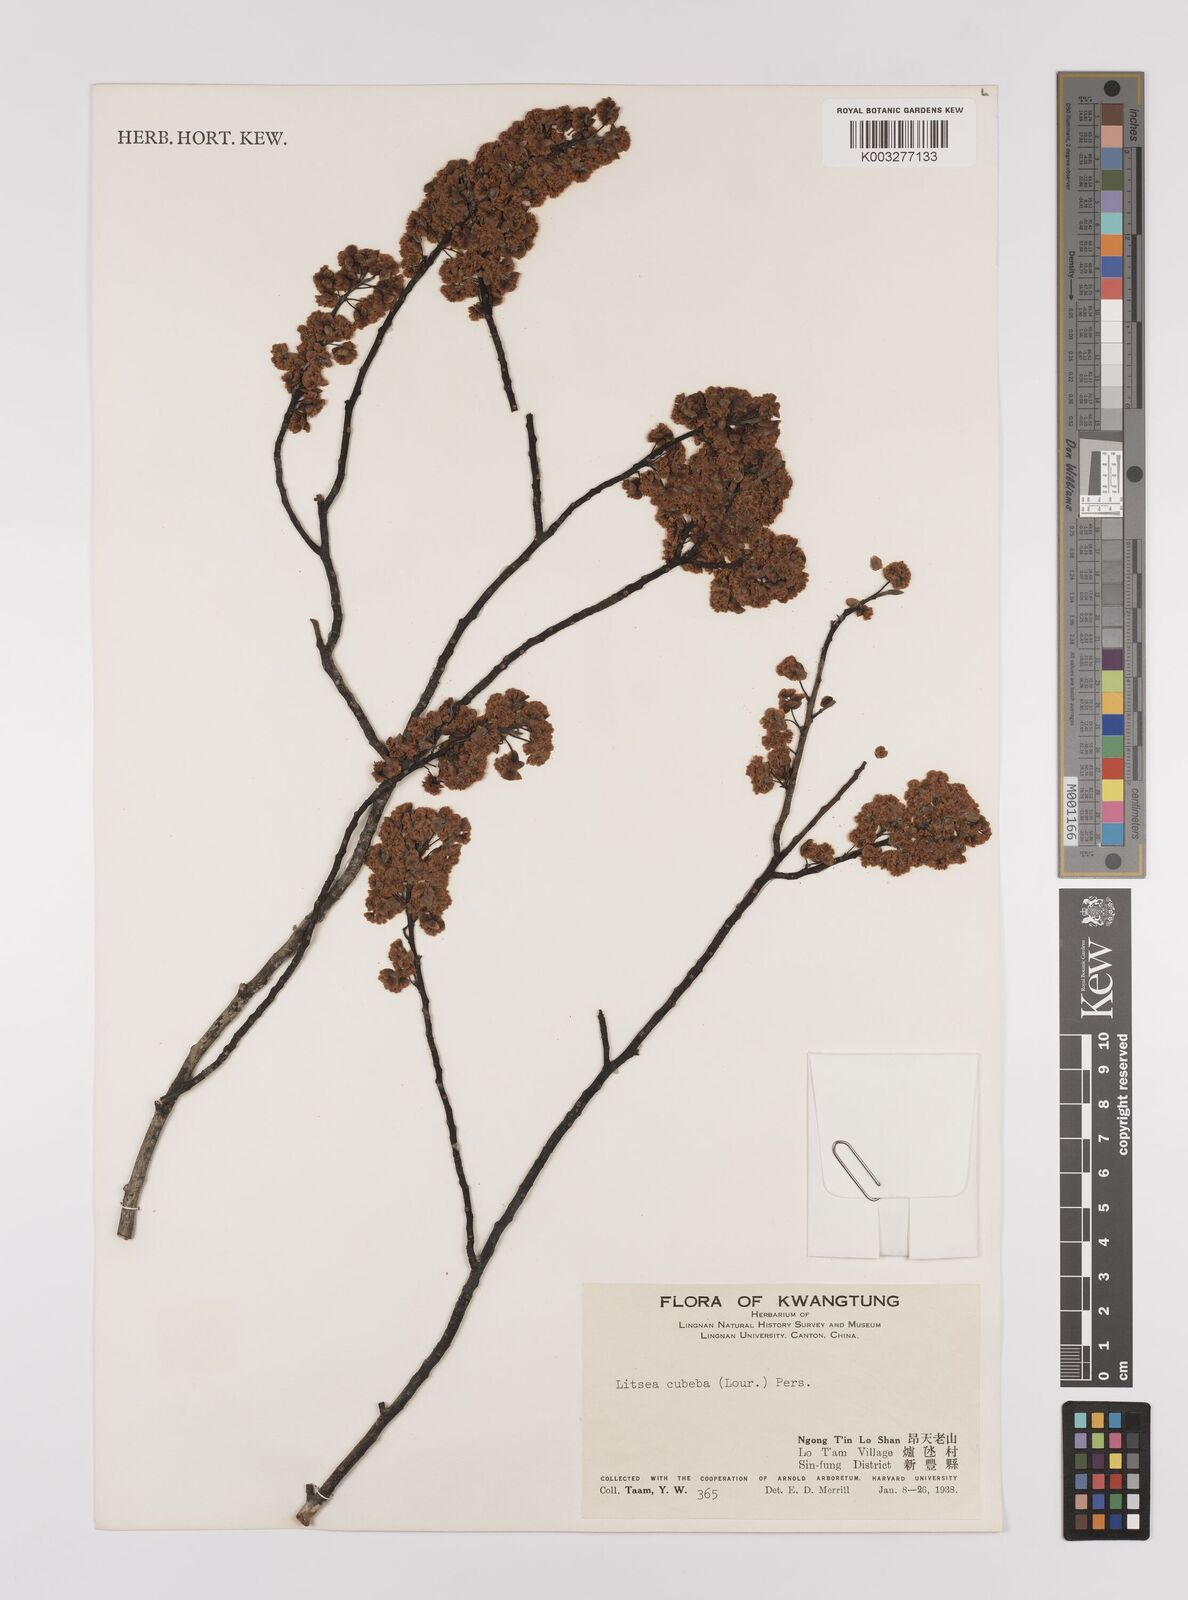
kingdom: Plantae
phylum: Tracheophyta
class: Magnoliopsida
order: Laurales
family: Lauraceae
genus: Litsea
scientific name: Litsea cubeba
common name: Mountain-pepper
